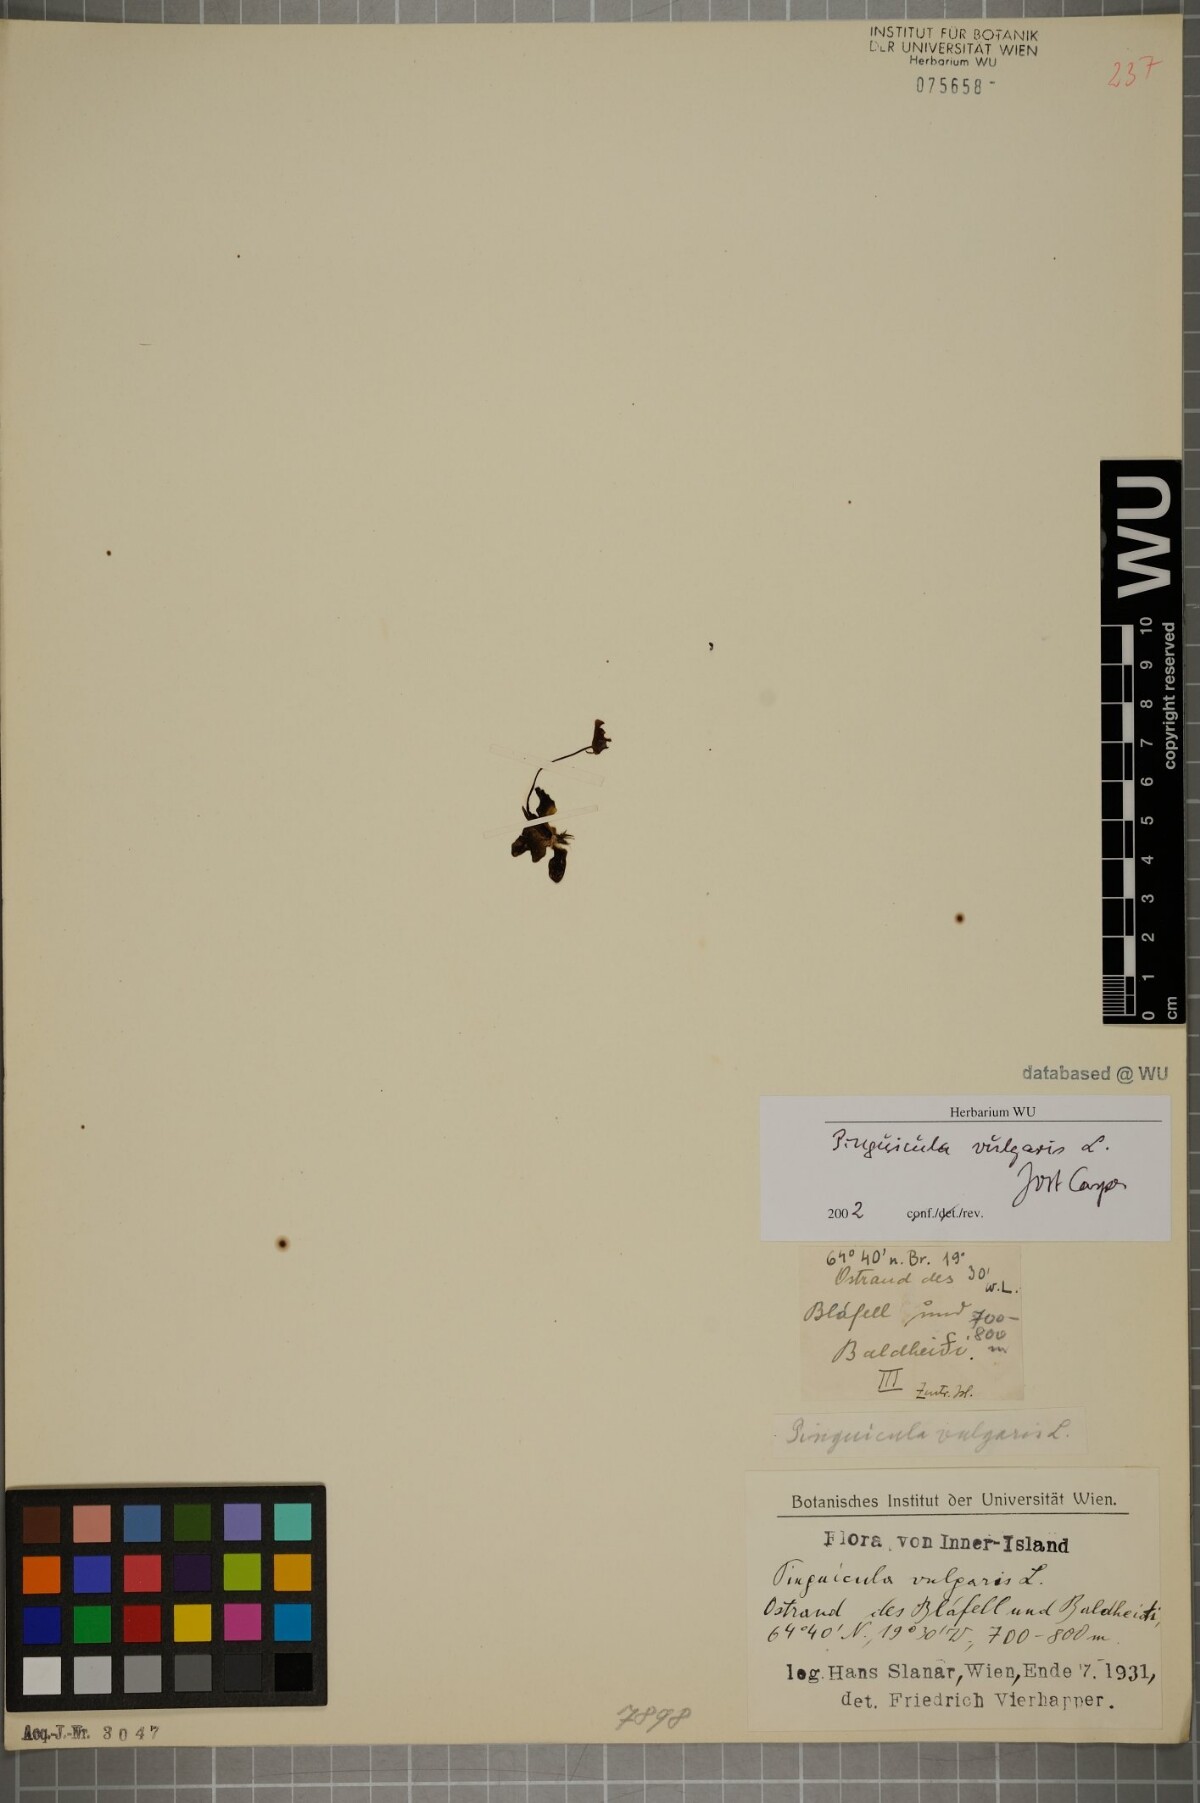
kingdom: Plantae
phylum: Tracheophyta
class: Magnoliopsida
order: Lamiales
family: Lentibulariaceae
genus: Pinguicula
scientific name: Pinguicula vulgaris
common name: Common butterwort
